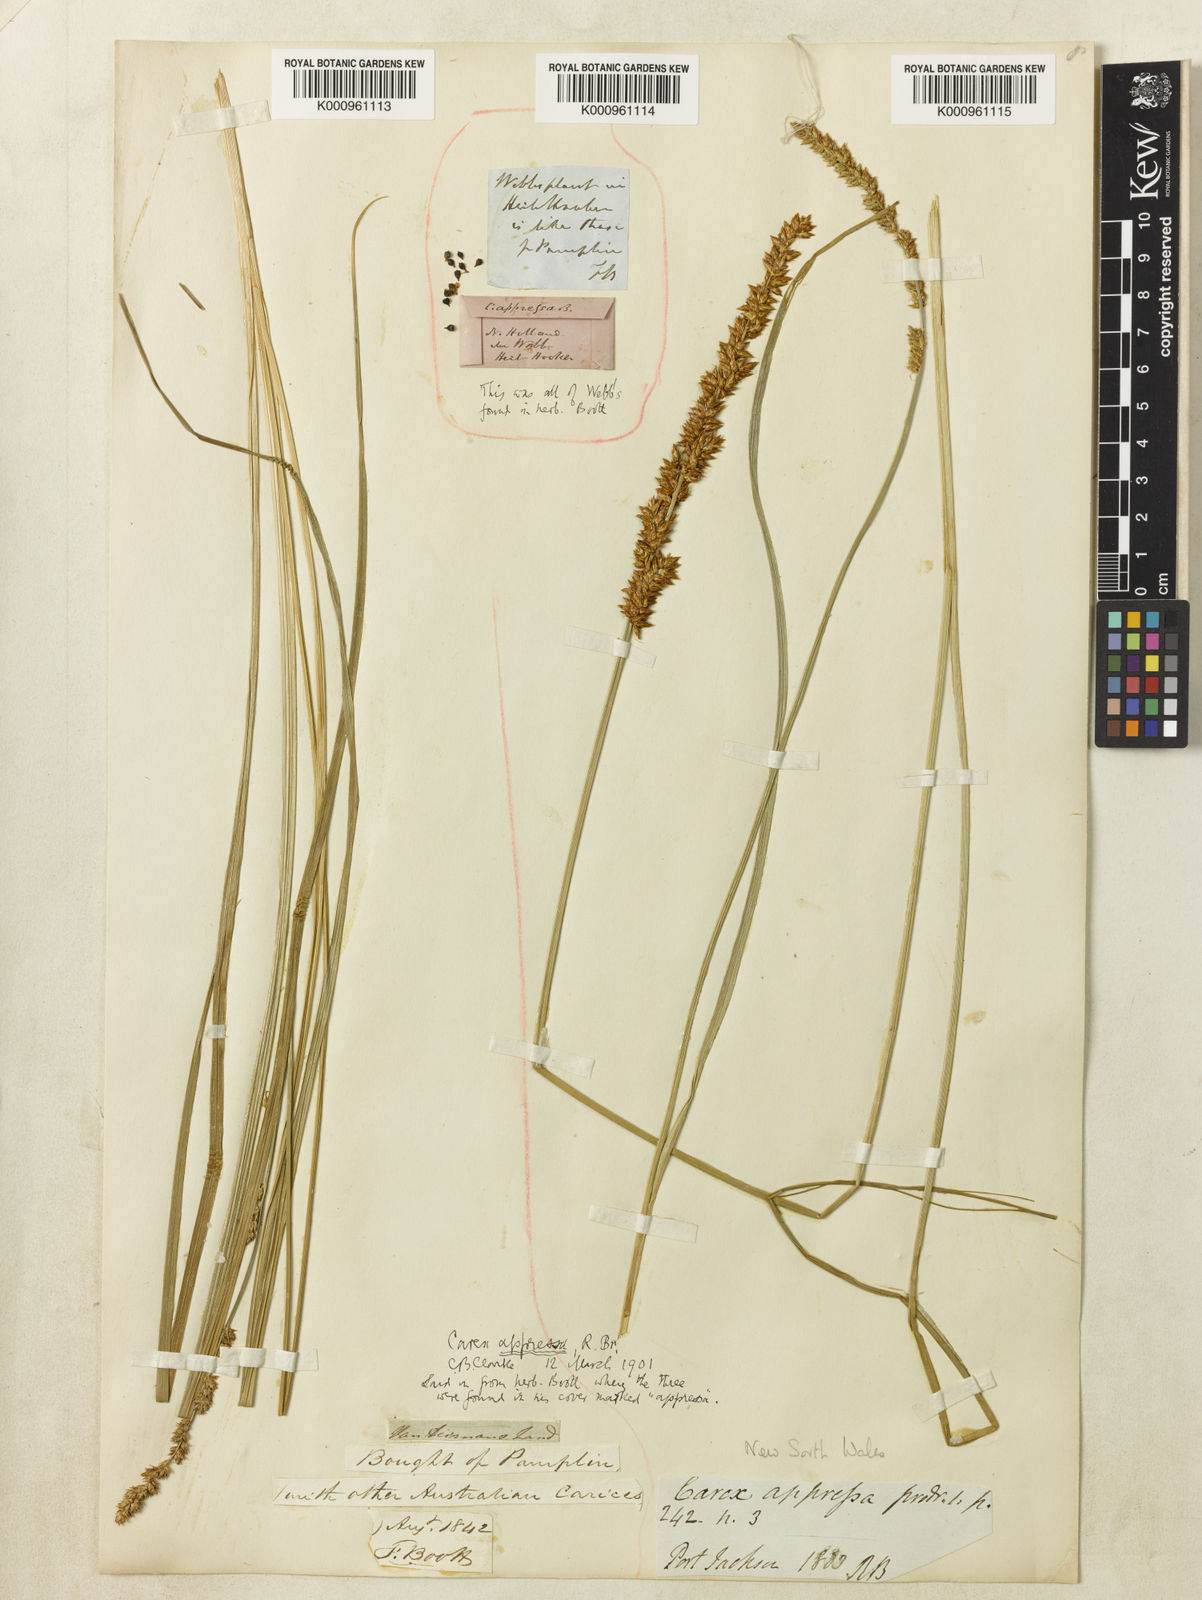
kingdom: Plantae
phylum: Tracheophyta
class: Liliopsida
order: Poales
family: Cyperaceae
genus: Carex
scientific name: Carex appressa
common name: Tussock sedge
